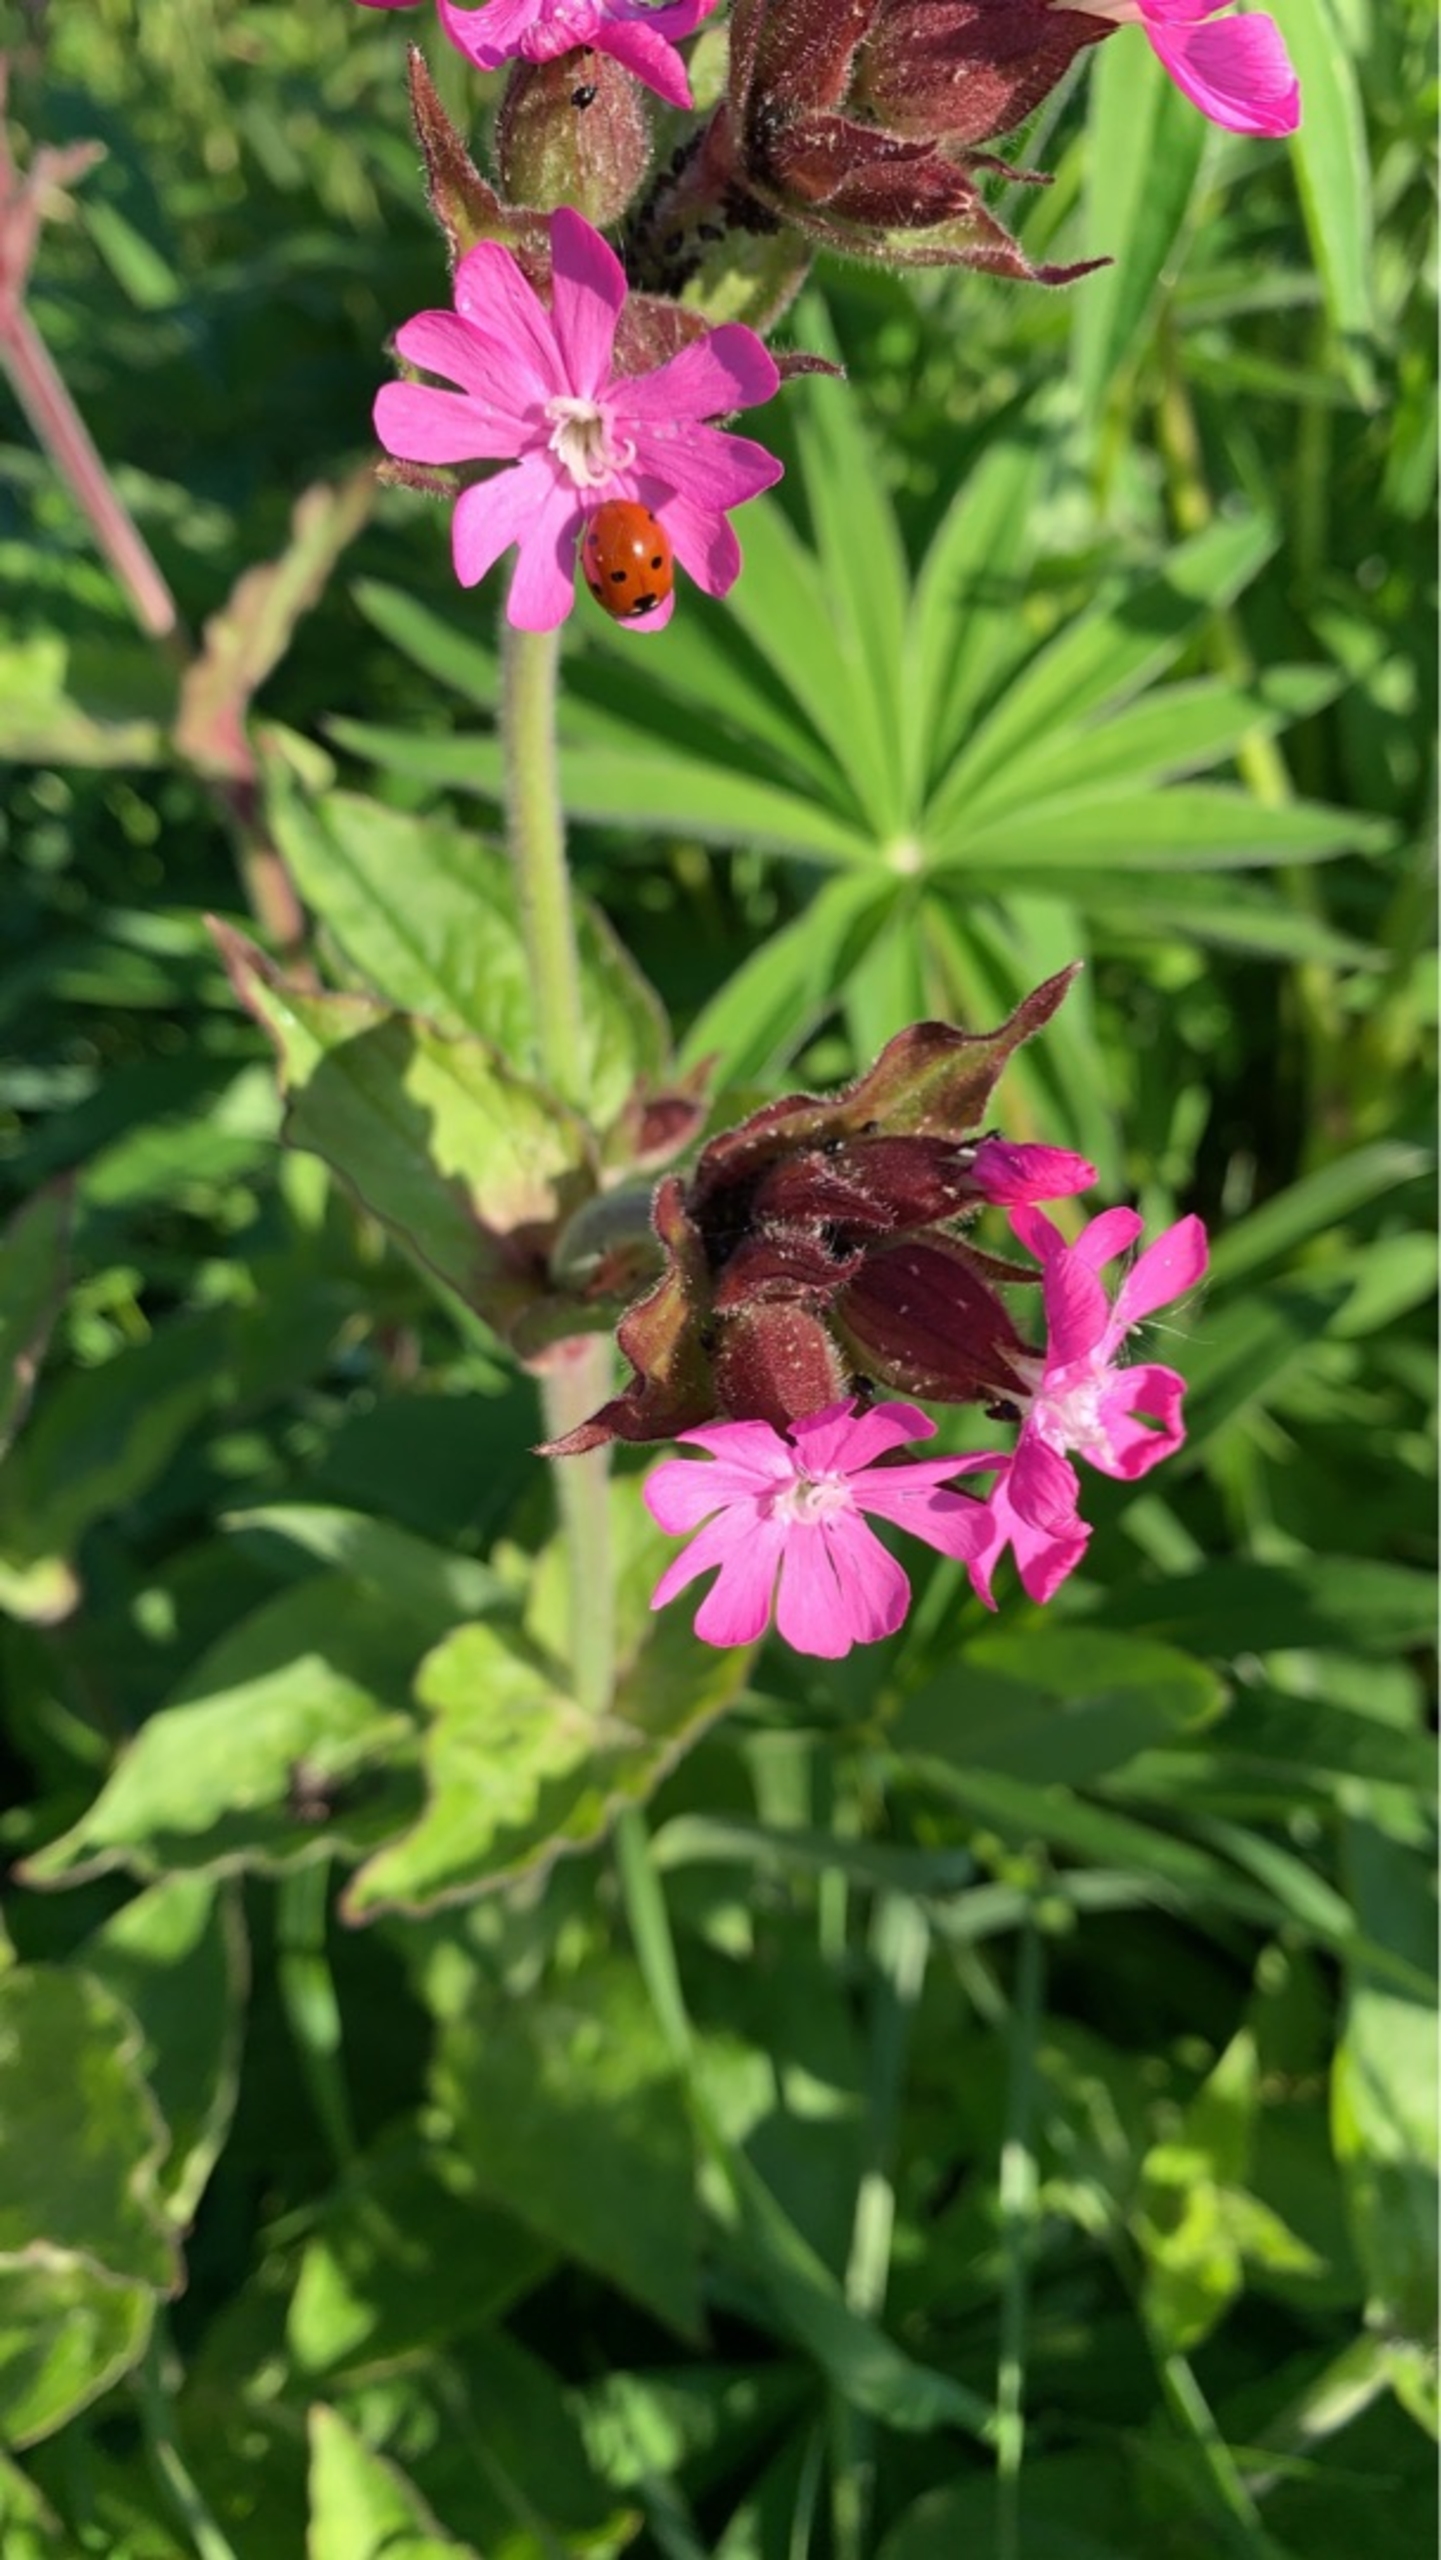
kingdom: Plantae
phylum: Tracheophyta
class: Magnoliopsida
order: Caryophyllales
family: Caryophyllaceae
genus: Silene
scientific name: Silene dioica
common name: Dagpragtstjerne
